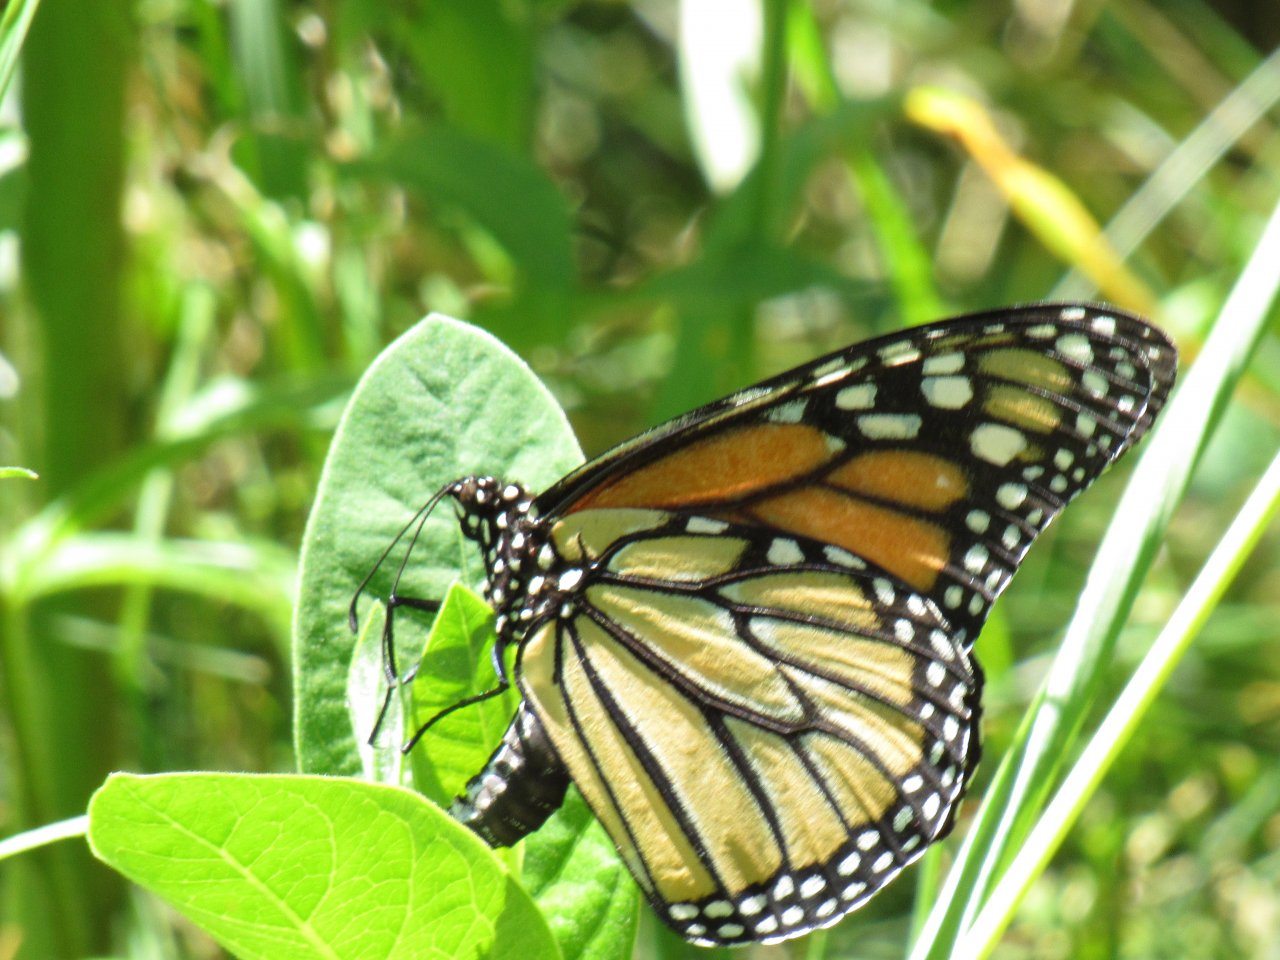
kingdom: Animalia
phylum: Arthropoda
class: Insecta
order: Lepidoptera
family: Nymphalidae
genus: Danaus
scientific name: Danaus plexippus
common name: Monarch
